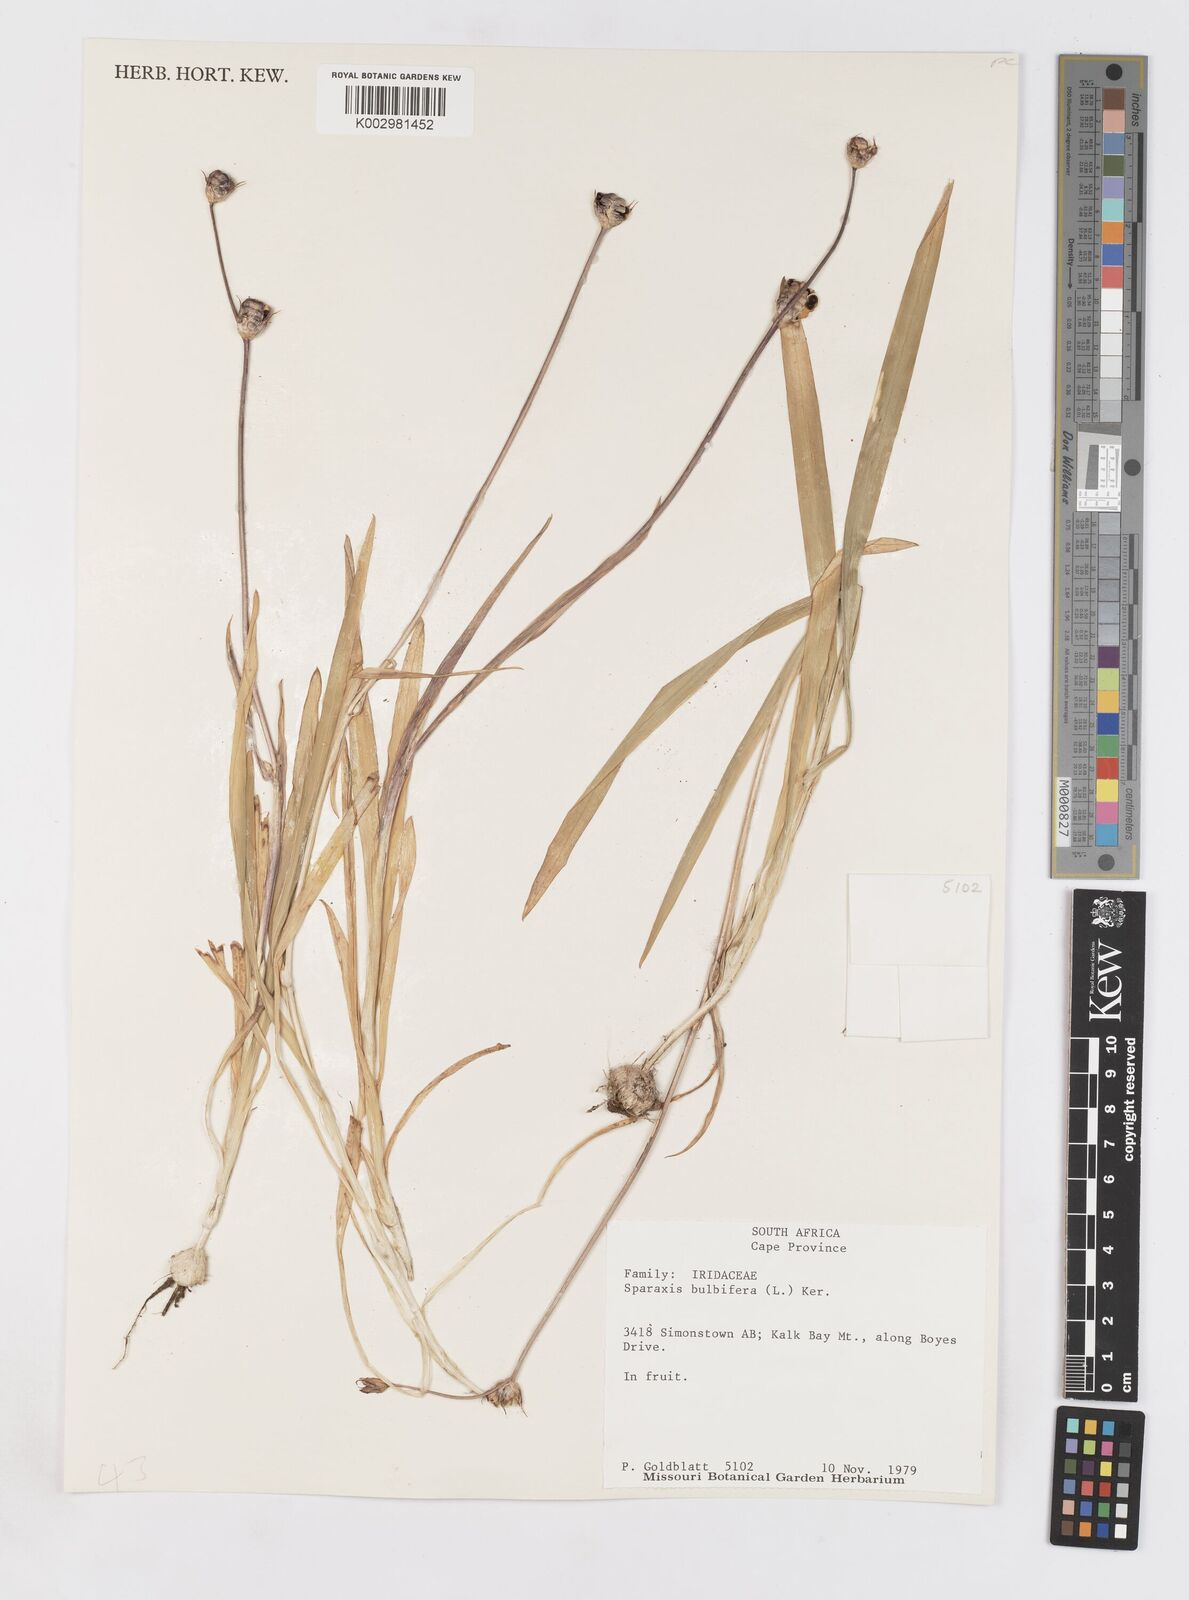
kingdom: Plantae
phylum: Tracheophyta
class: Liliopsida
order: Asparagales
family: Iridaceae
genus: Sparaxis
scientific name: Sparaxis bulbifera
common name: Harlequin-flower
